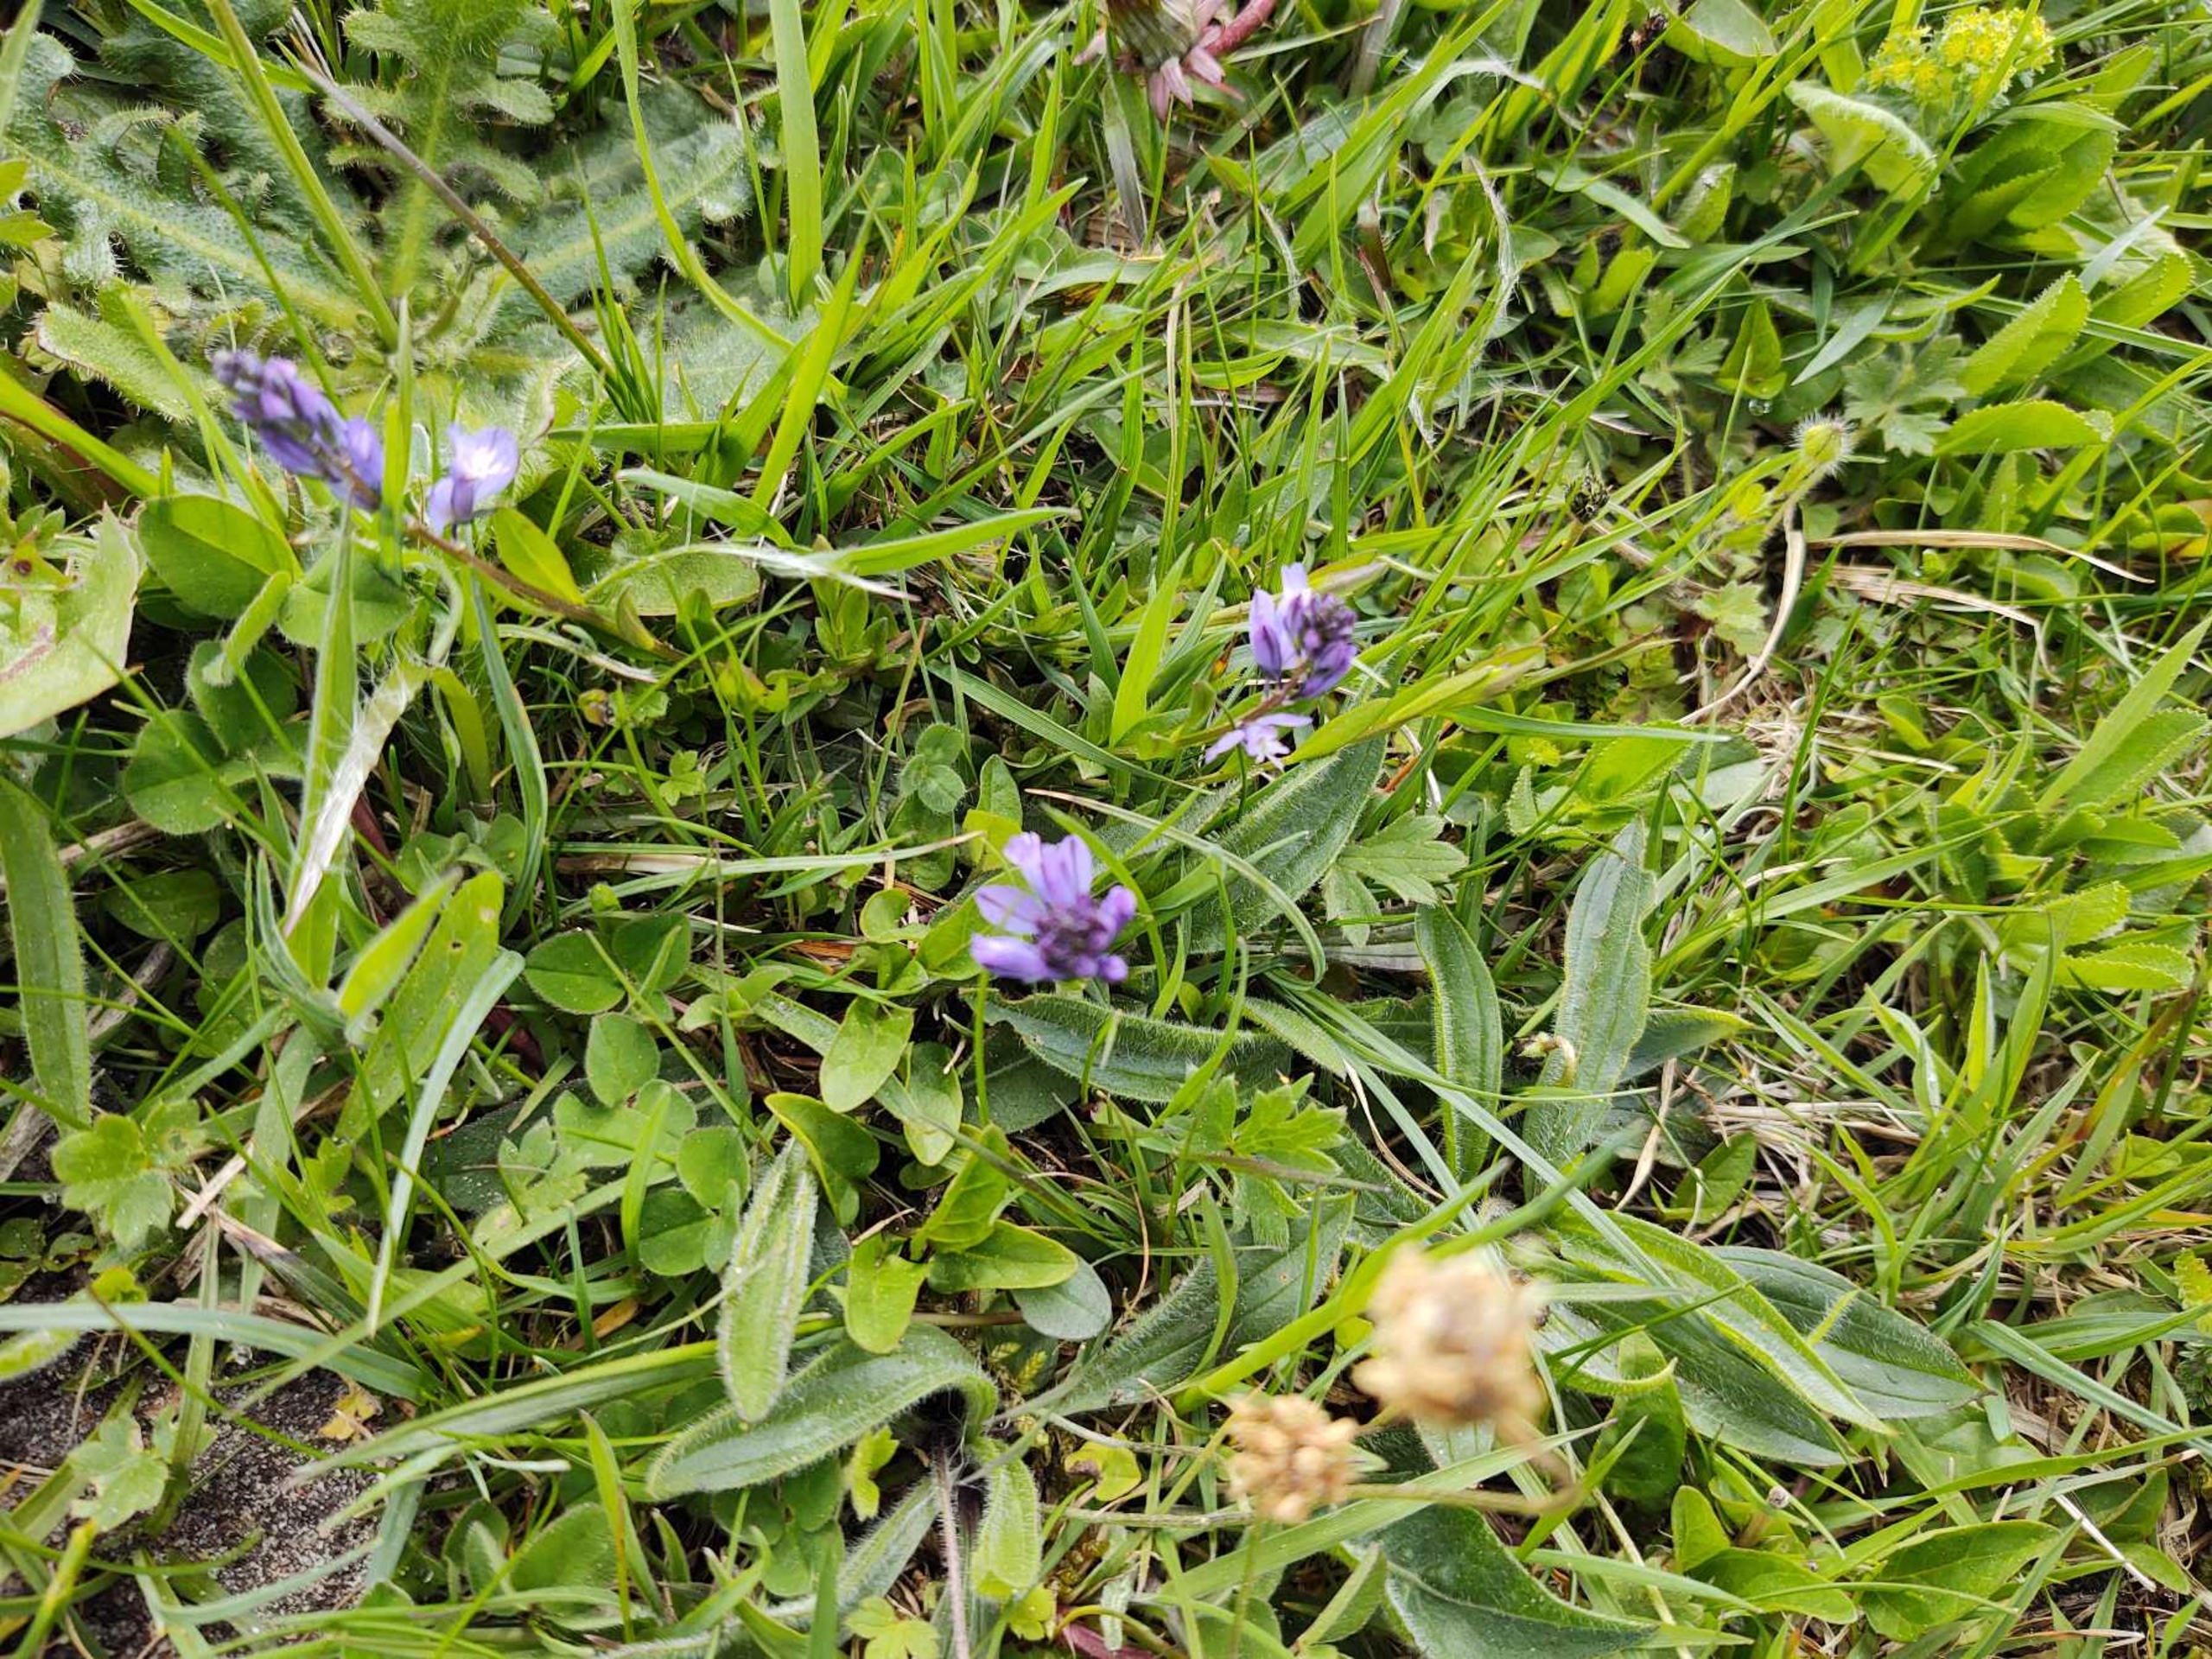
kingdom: Plantae
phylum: Tracheophyta
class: Magnoliopsida
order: Fabales
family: Polygalaceae
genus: Polygala
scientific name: Polygala
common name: Mælkeurtslægten
